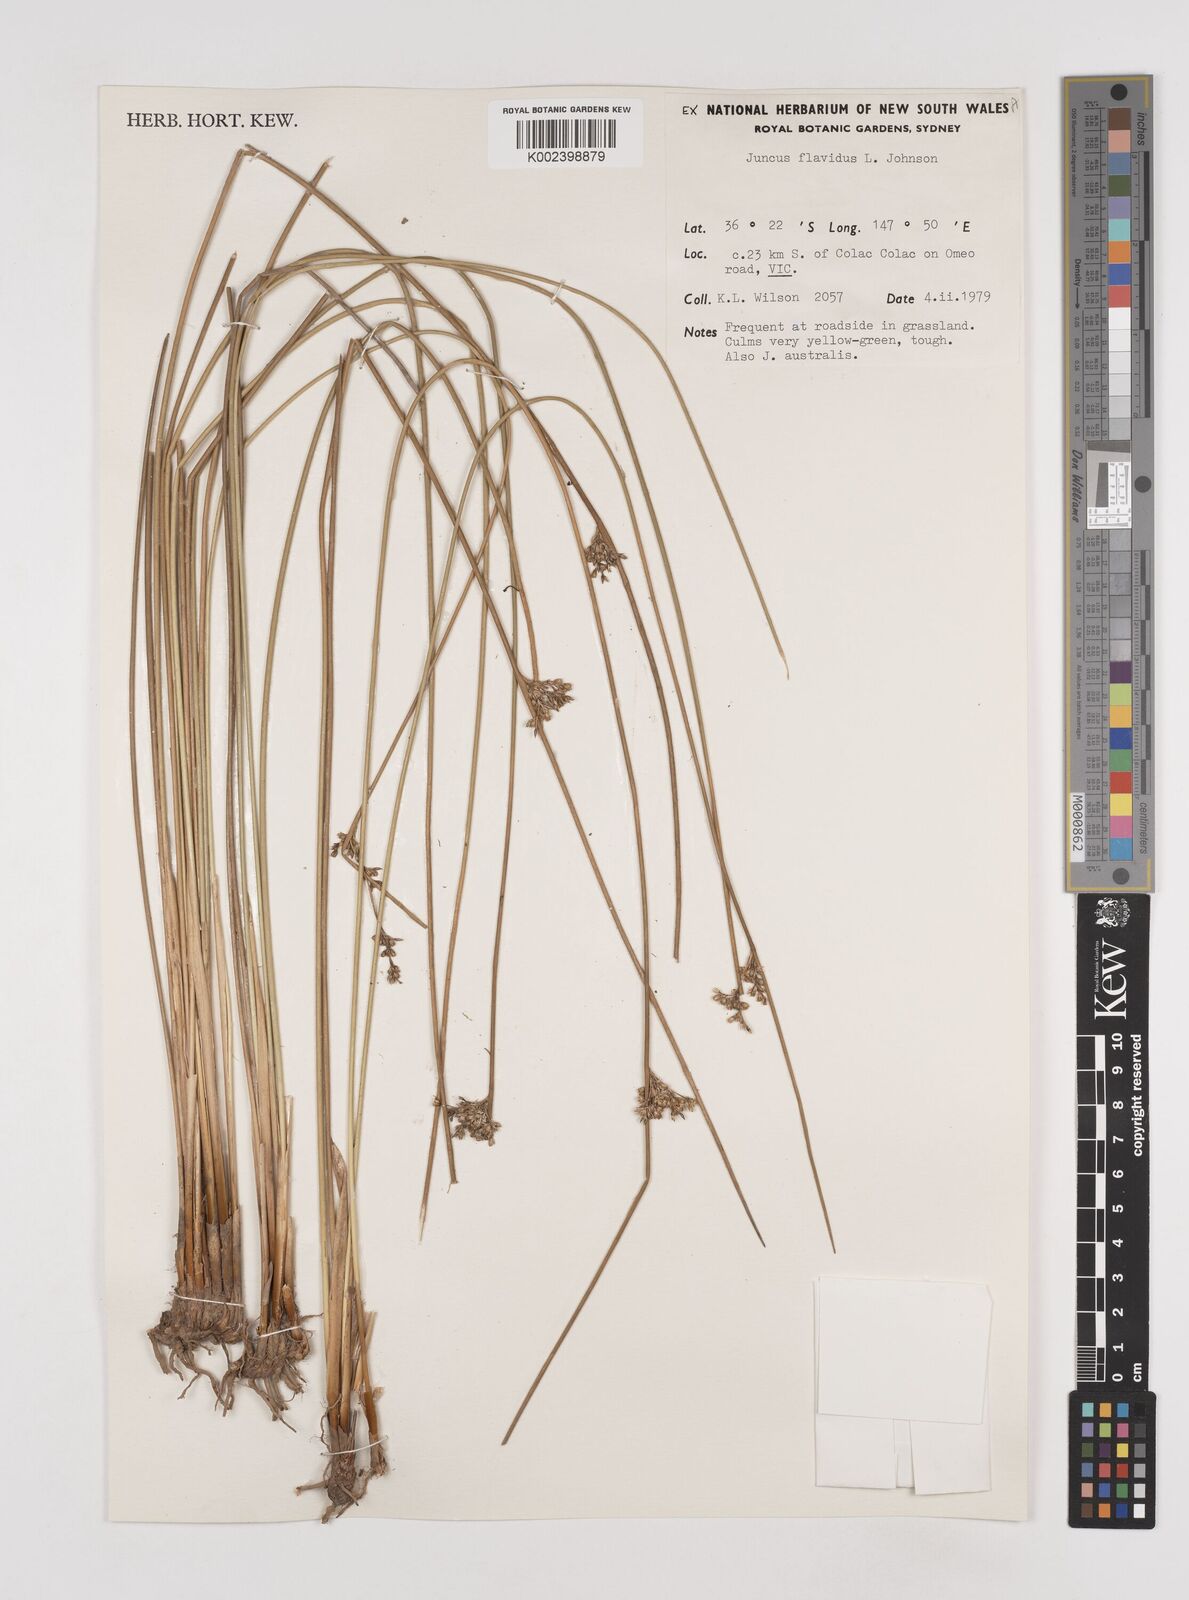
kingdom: Plantae
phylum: Tracheophyta
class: Liliopsida
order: Poales
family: Juncaceae
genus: Juncus
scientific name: Juncus flavidus
